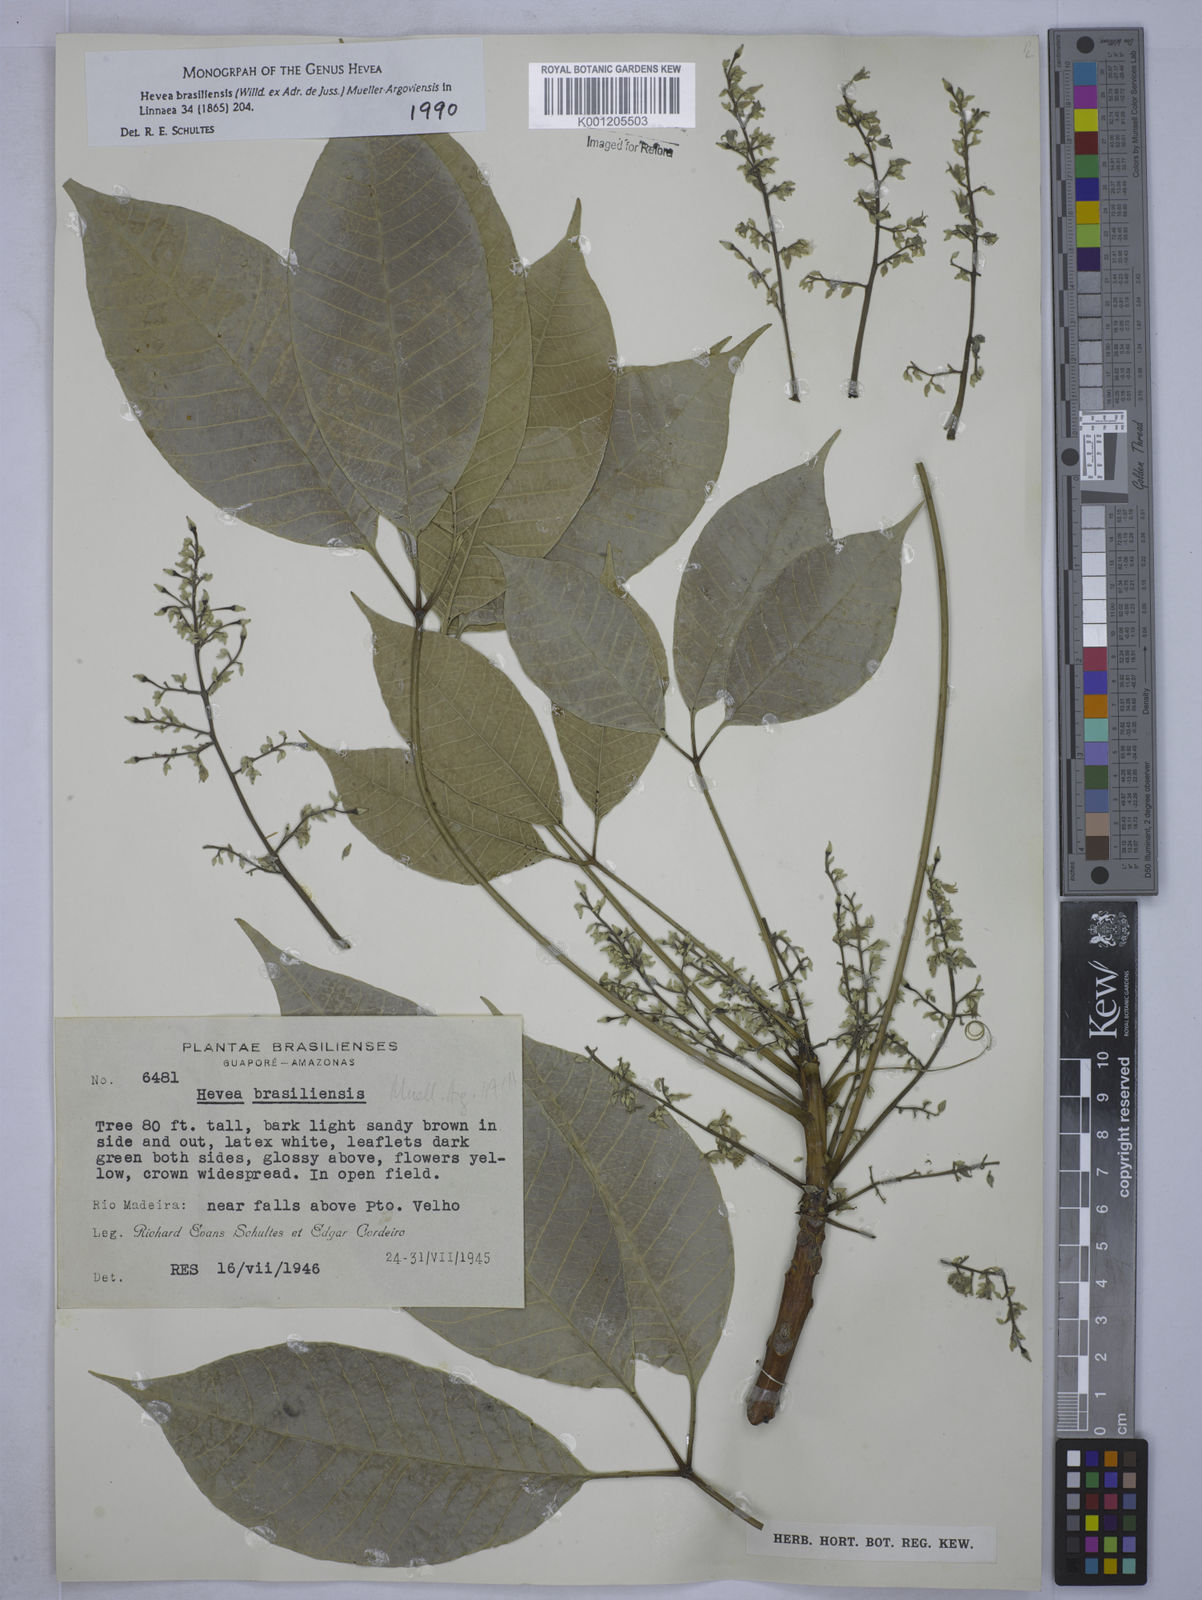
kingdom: Plantae
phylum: Tracheophyta
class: Magnoliopsida
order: Malpighiales
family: Euphorbiaceae
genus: Hevea
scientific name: Hevea
